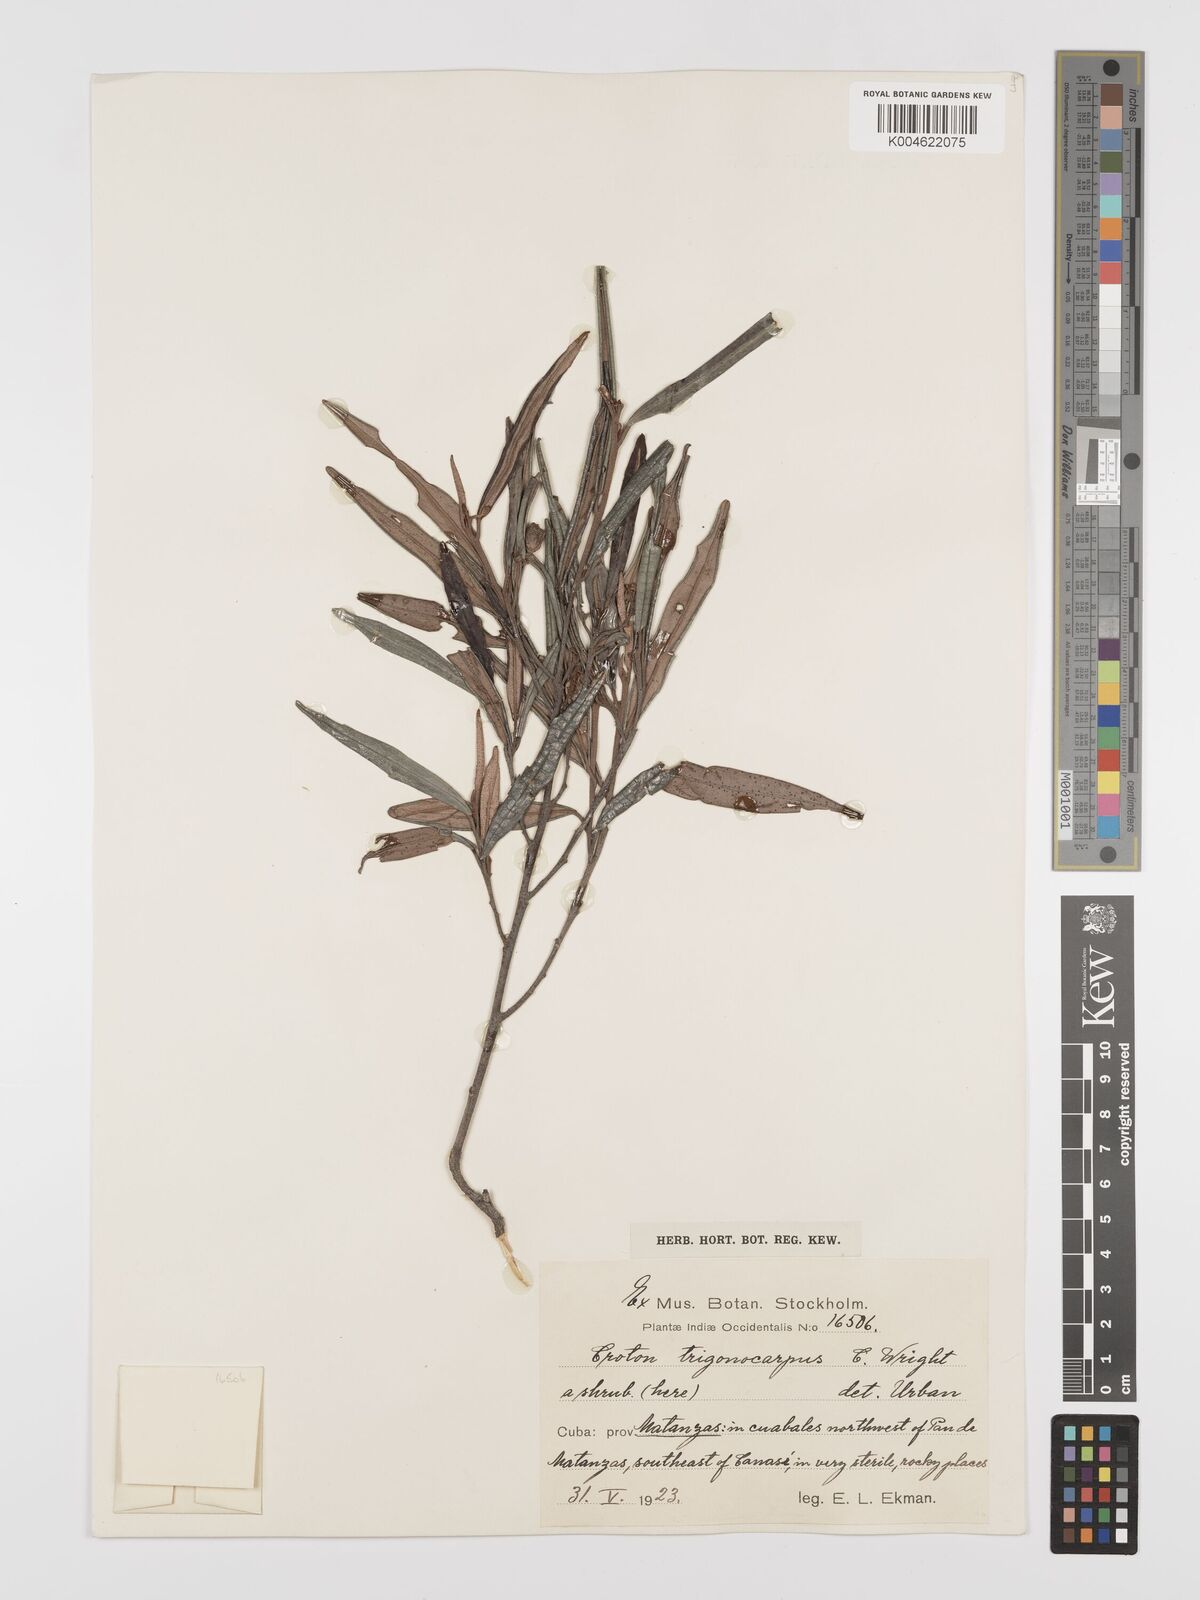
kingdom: Plantae
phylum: Tracheophyta
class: Magnoliopsida
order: Malpighiales
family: Euphorbiaceae
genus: Croton
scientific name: Croton trigonocarpus
